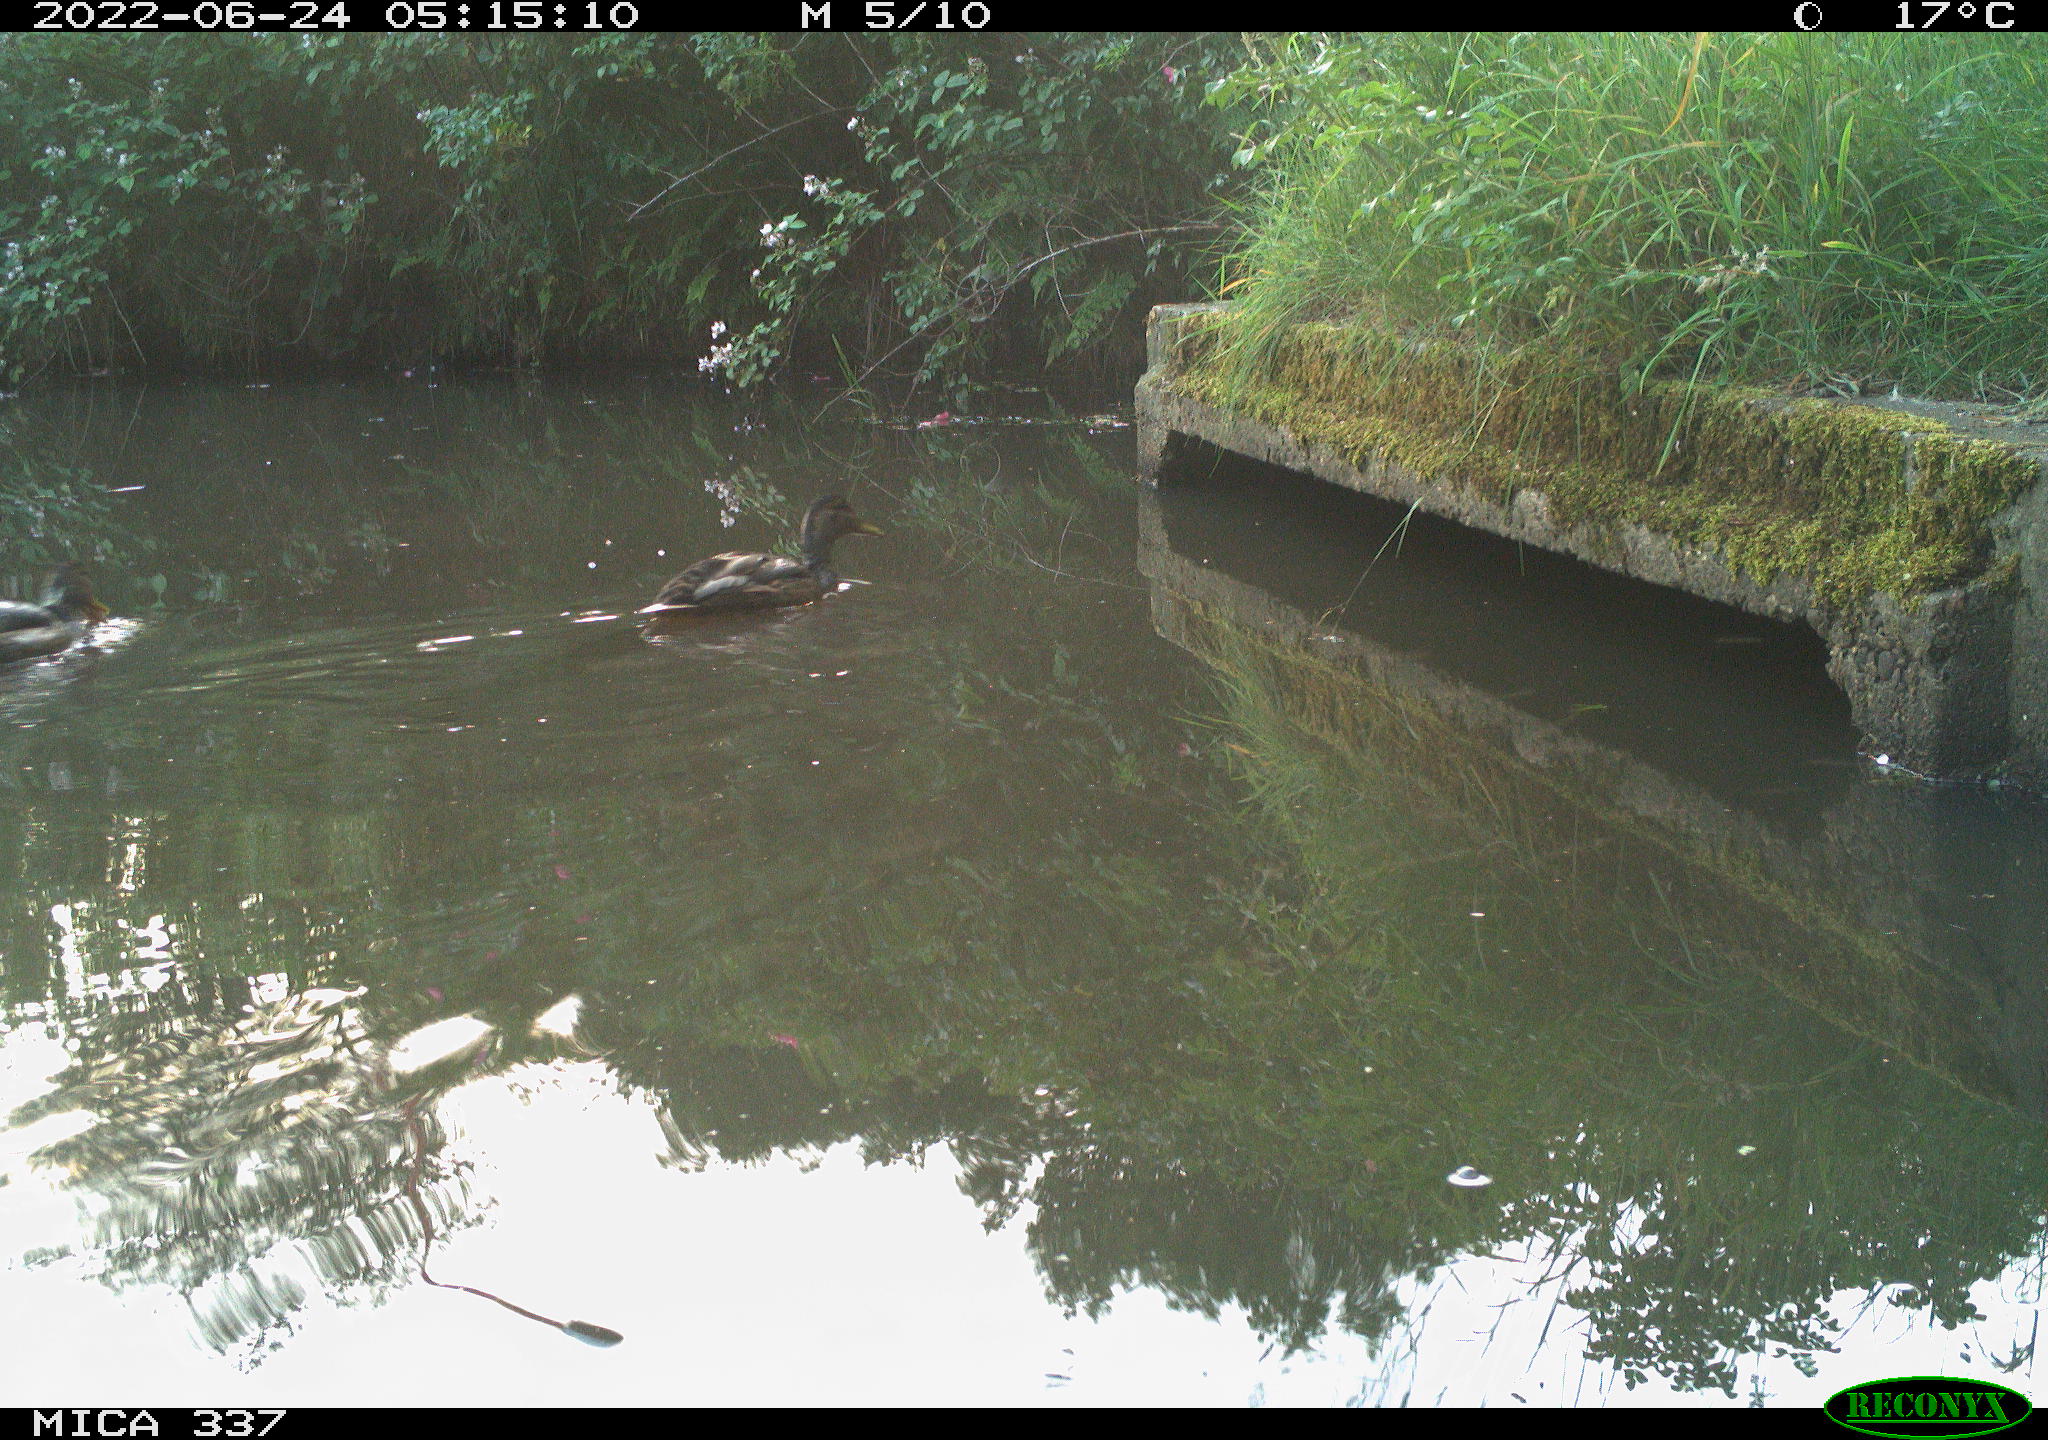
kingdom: Animalia
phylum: Chordata
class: Aves
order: Anseriformes
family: Anatidae
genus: Anas
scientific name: Anas platyrhynchos
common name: Mallard
